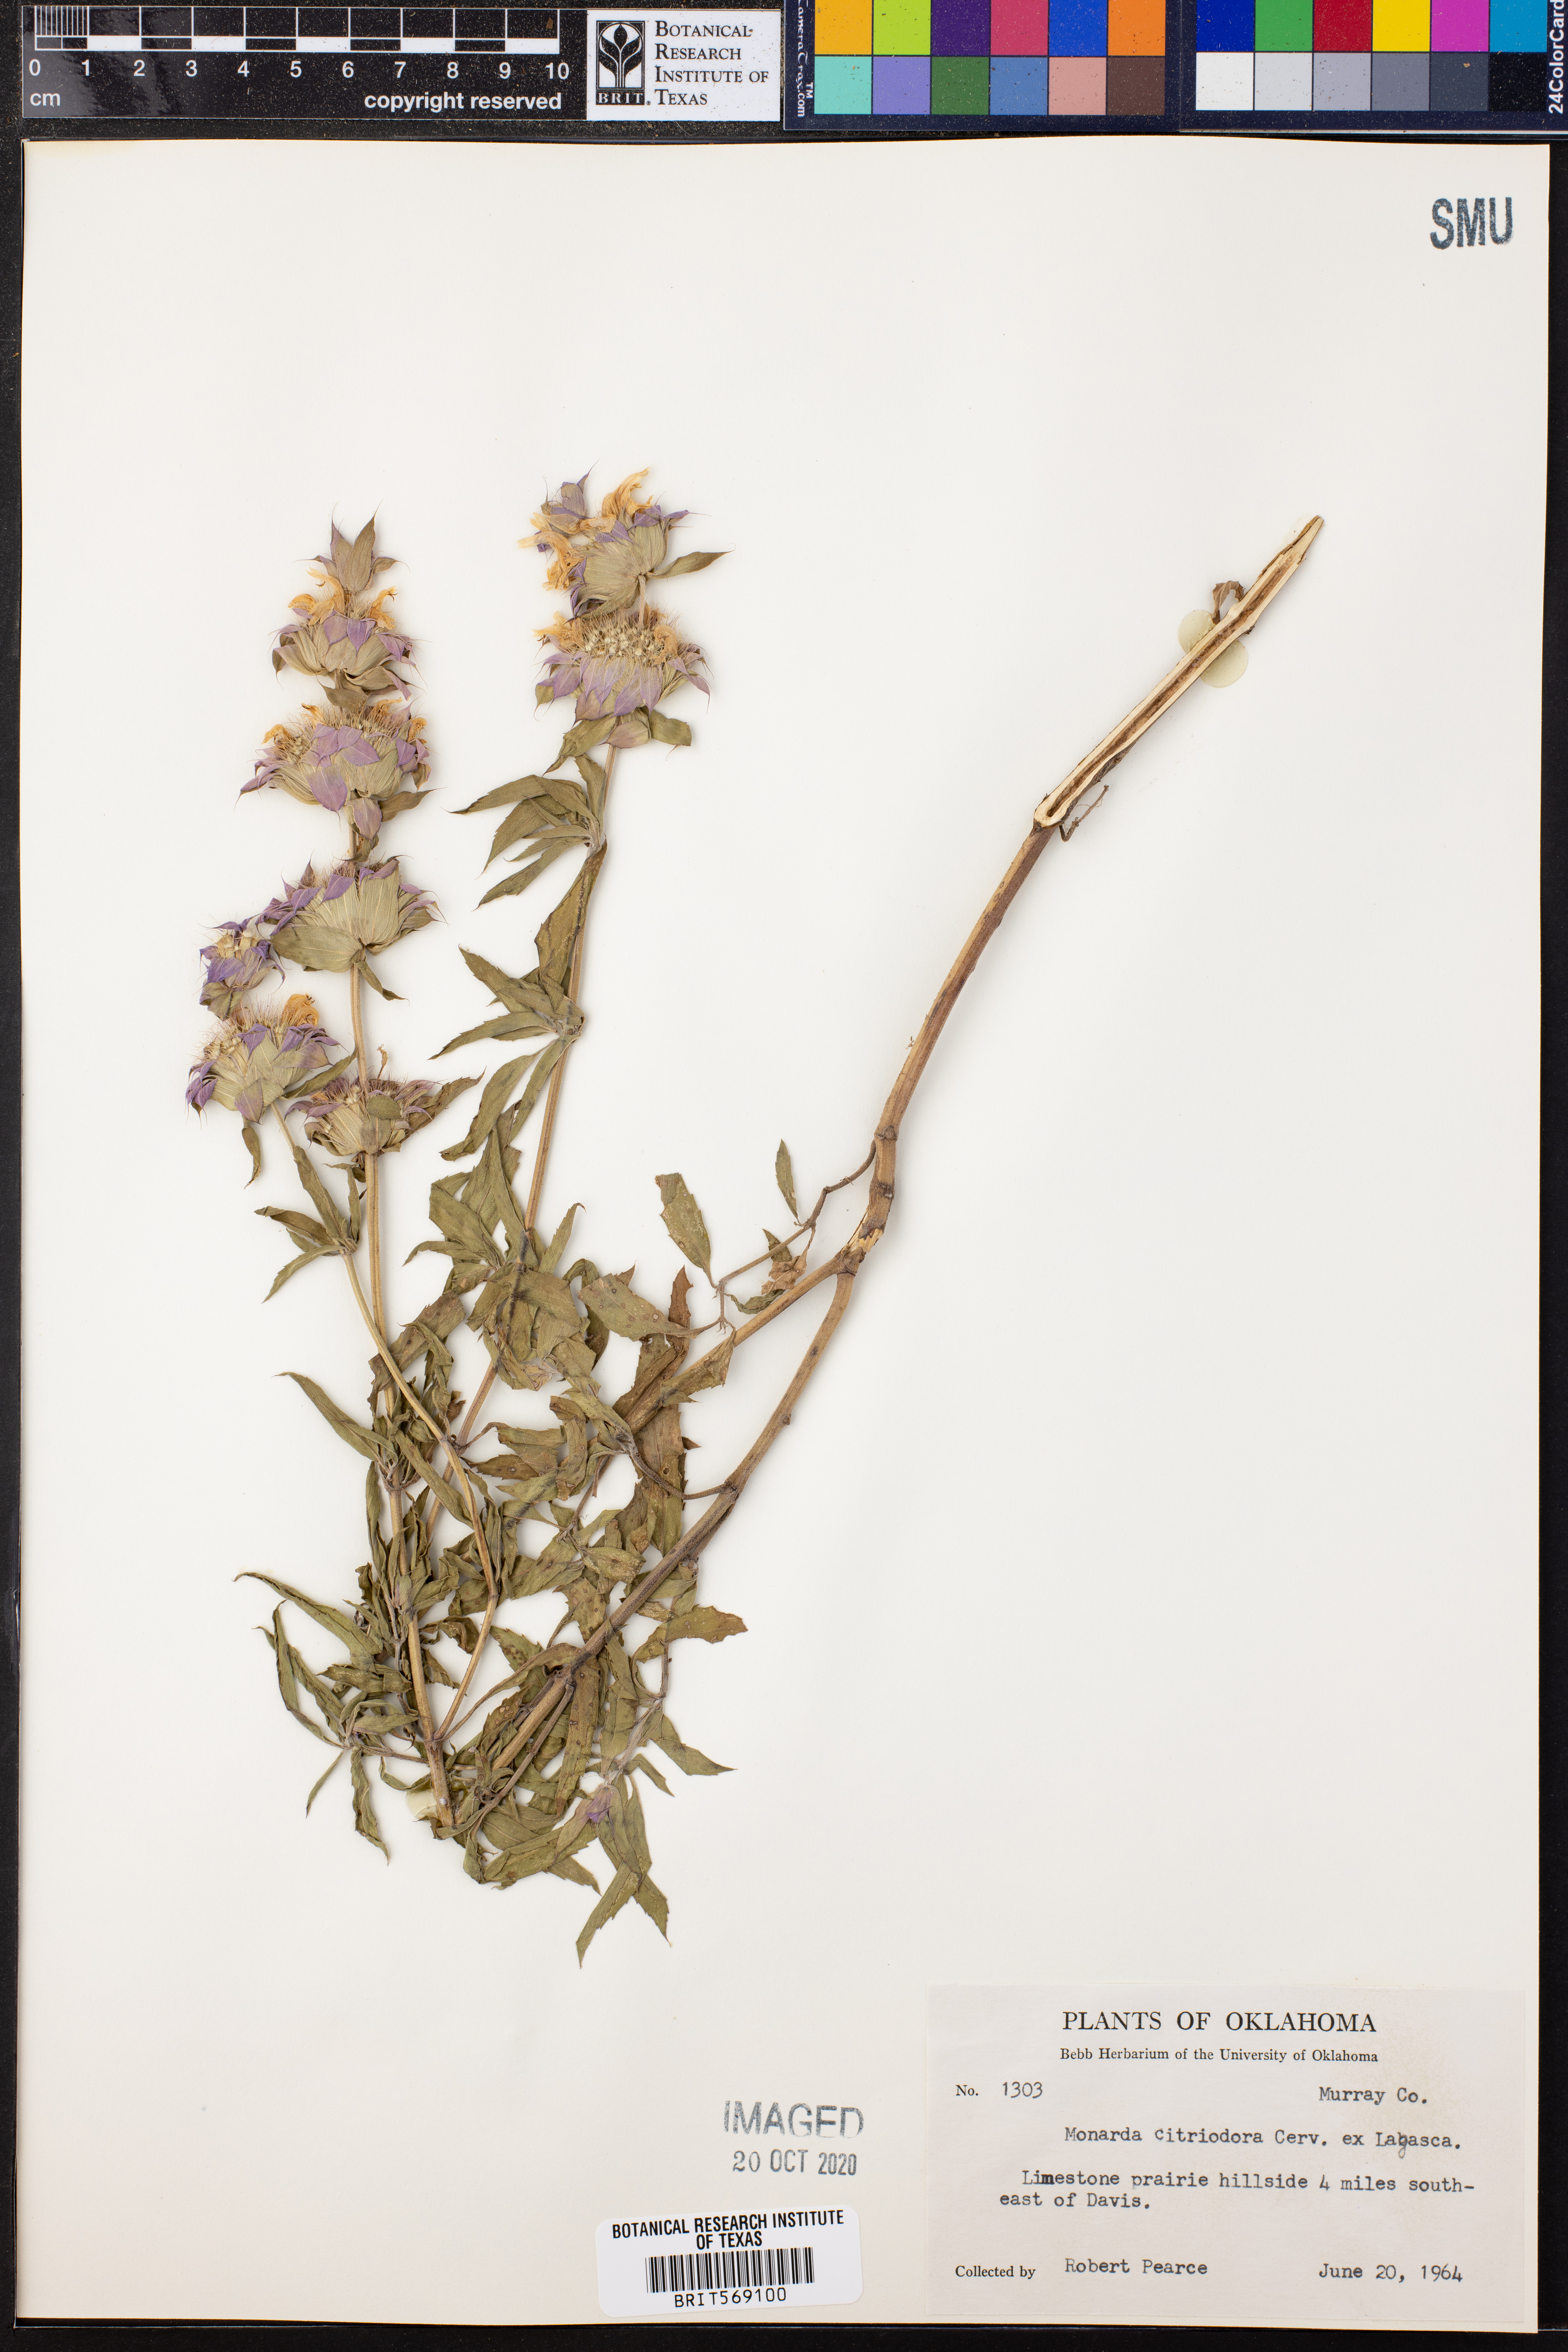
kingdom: Plantae
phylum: Tracheophyta
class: Magnoliopsida
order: Lamiales
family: Lamiaceae
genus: Monarda
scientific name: Monarda citriodora
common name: Lemon beebalm
